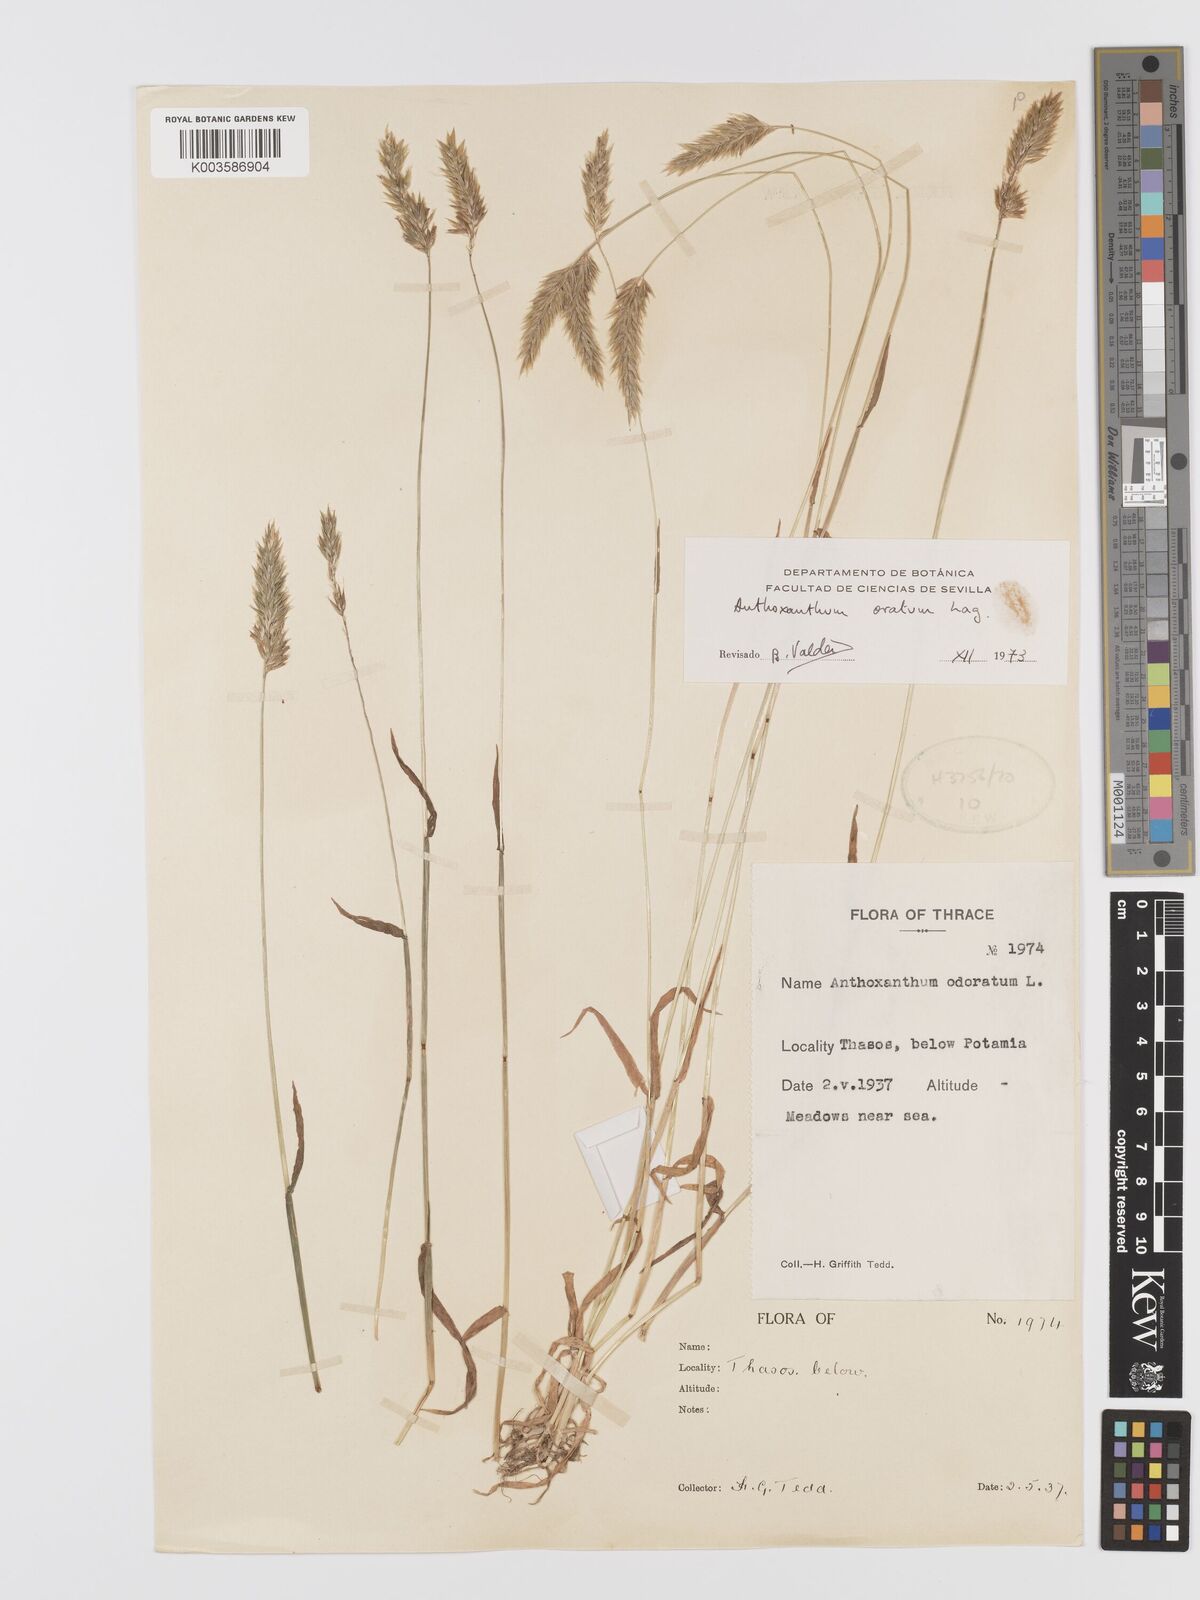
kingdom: Plantae
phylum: Tracheophyta
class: Liliopsida
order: Poales
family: Poaceae
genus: Anthoxanthum
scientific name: Anthoxanthum ovatum
